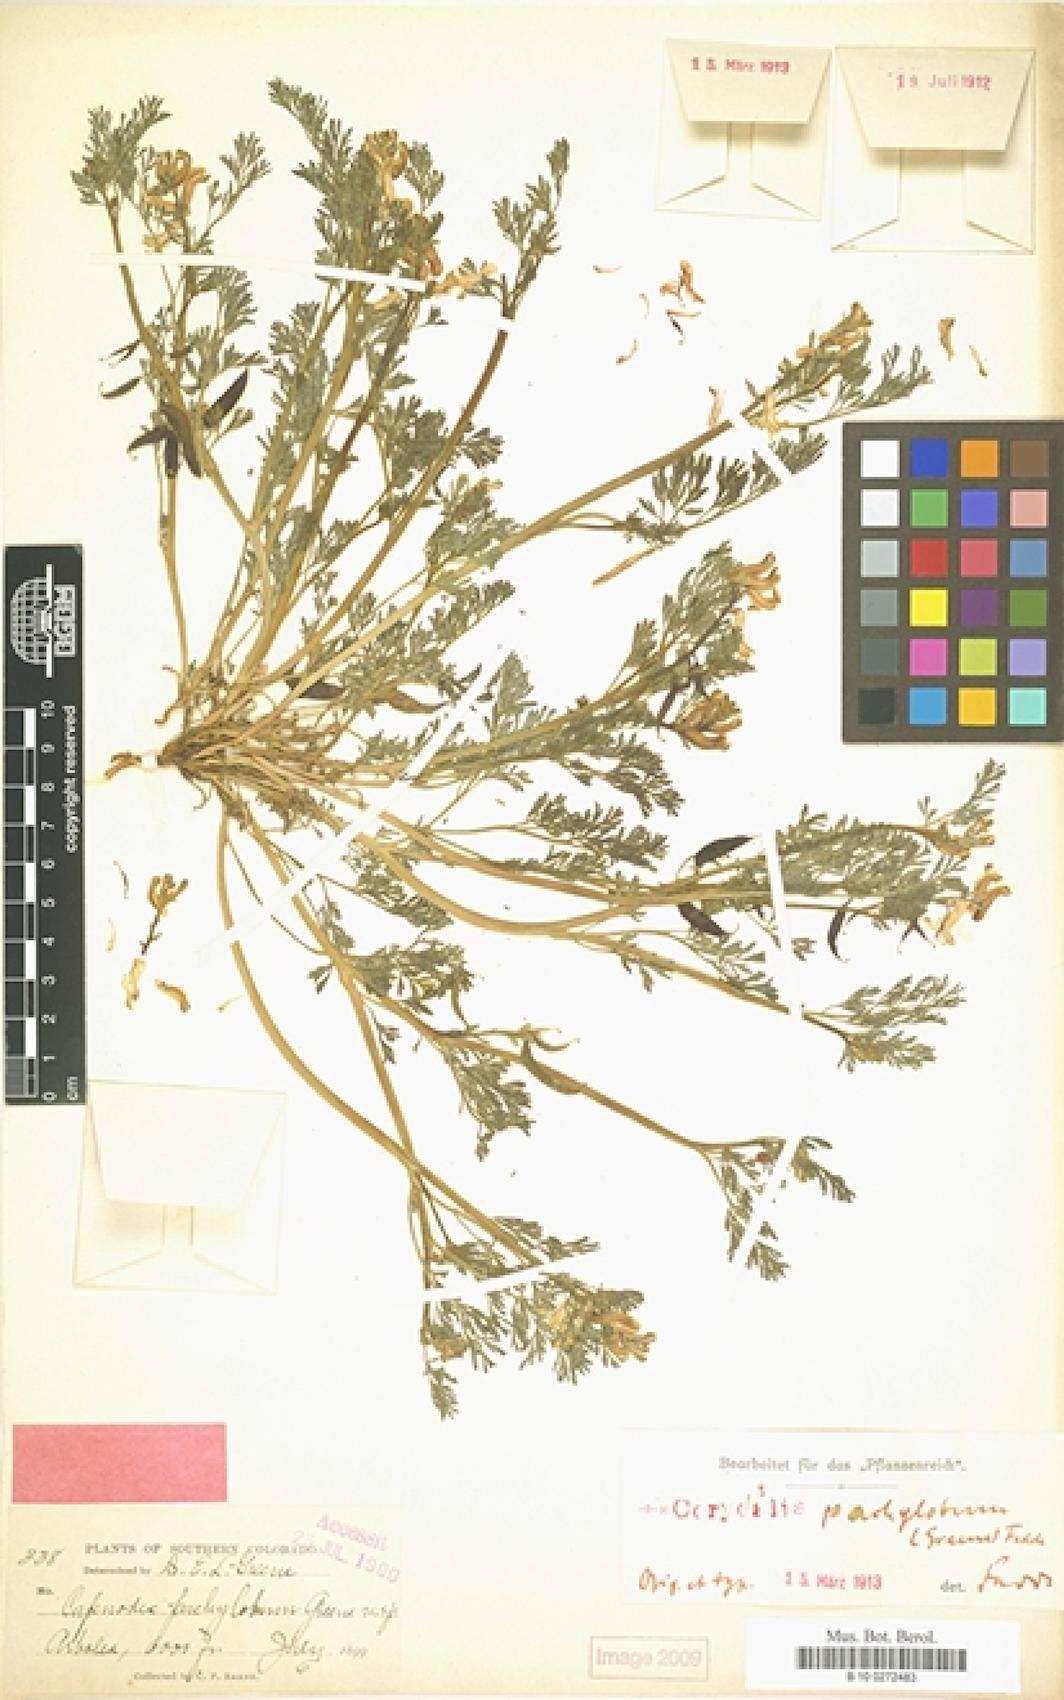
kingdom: Plantae
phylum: Tracheophyta
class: Magnoliopsida
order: Ranunculales
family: Papaveraceae
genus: Corydalis
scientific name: Corydalis curvisiliqua
